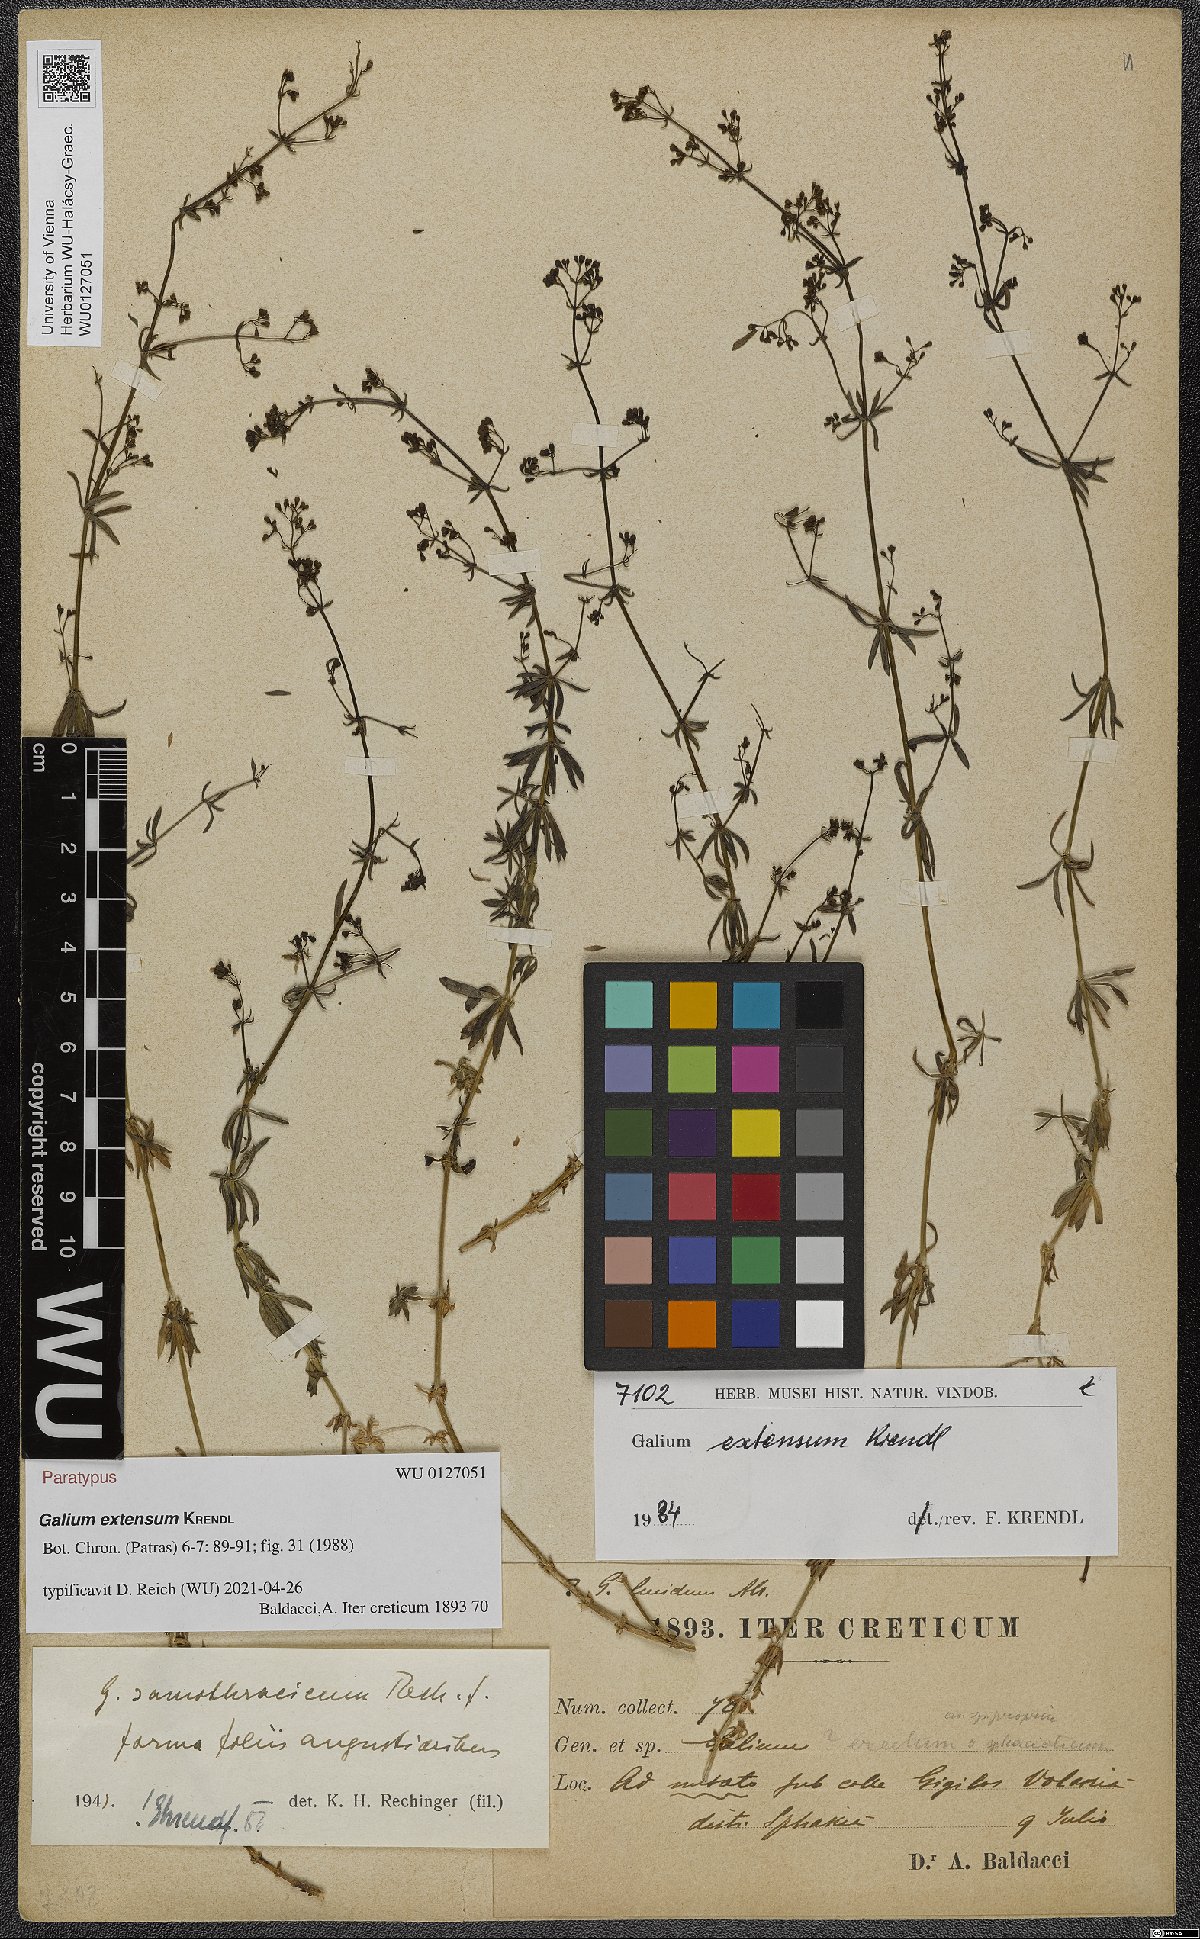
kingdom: Plantae
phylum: Tracheophyta
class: Magnoliopsida
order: Gentianales
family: Rubiaceae
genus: Galium
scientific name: Galium extensum
